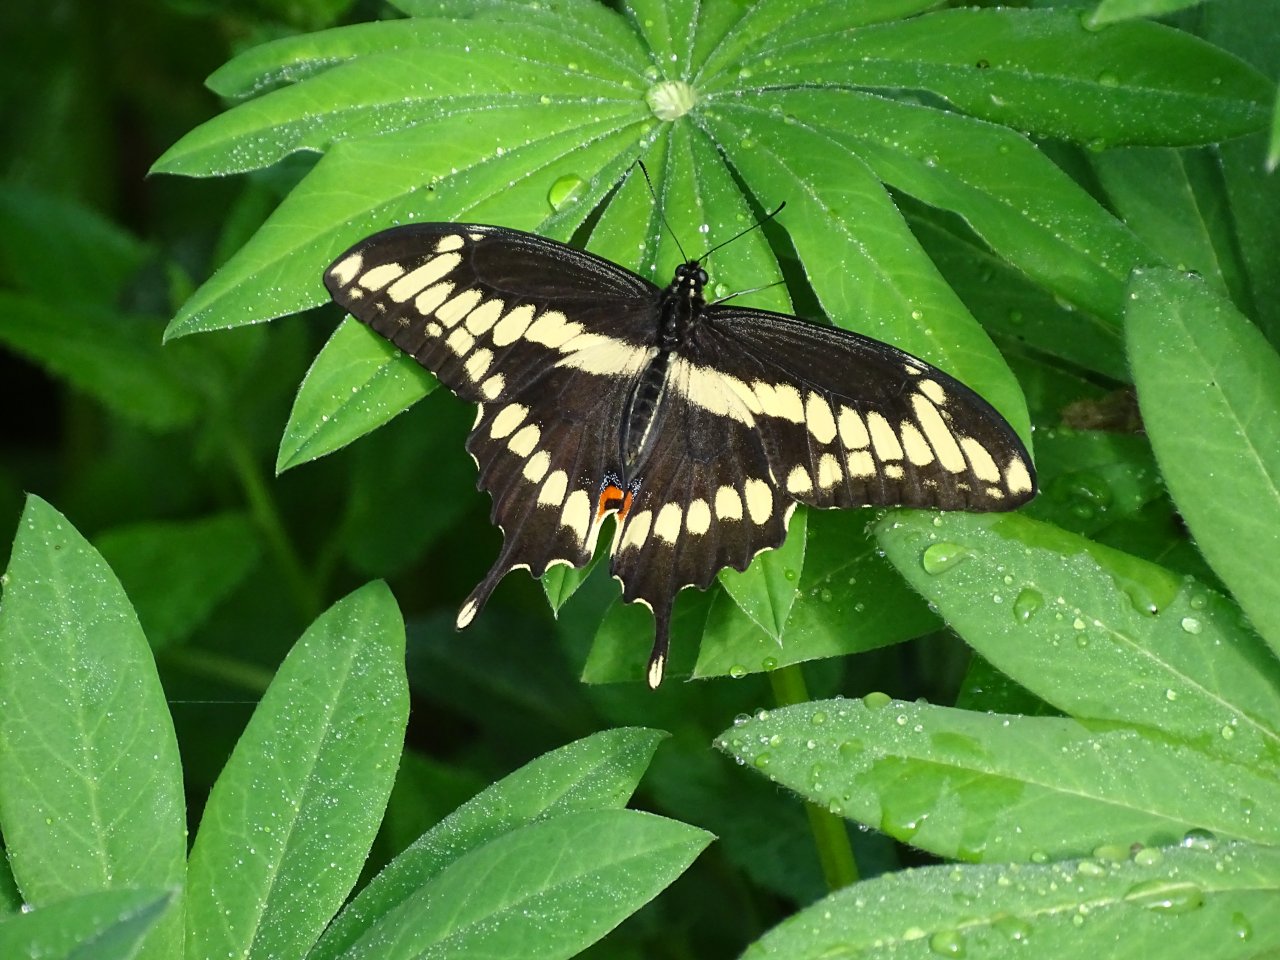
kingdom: Animalia
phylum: Arthropoda
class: Insecta
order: Lepidoptera
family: Papilionidae
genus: Papilio
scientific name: Papilio cresphontes
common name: Eastern Giant Swallowtail
